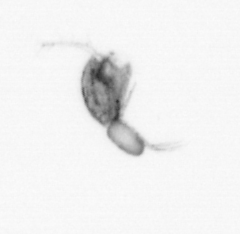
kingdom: Animalia
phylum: Arthropoda
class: Copepoda
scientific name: Copepoda
